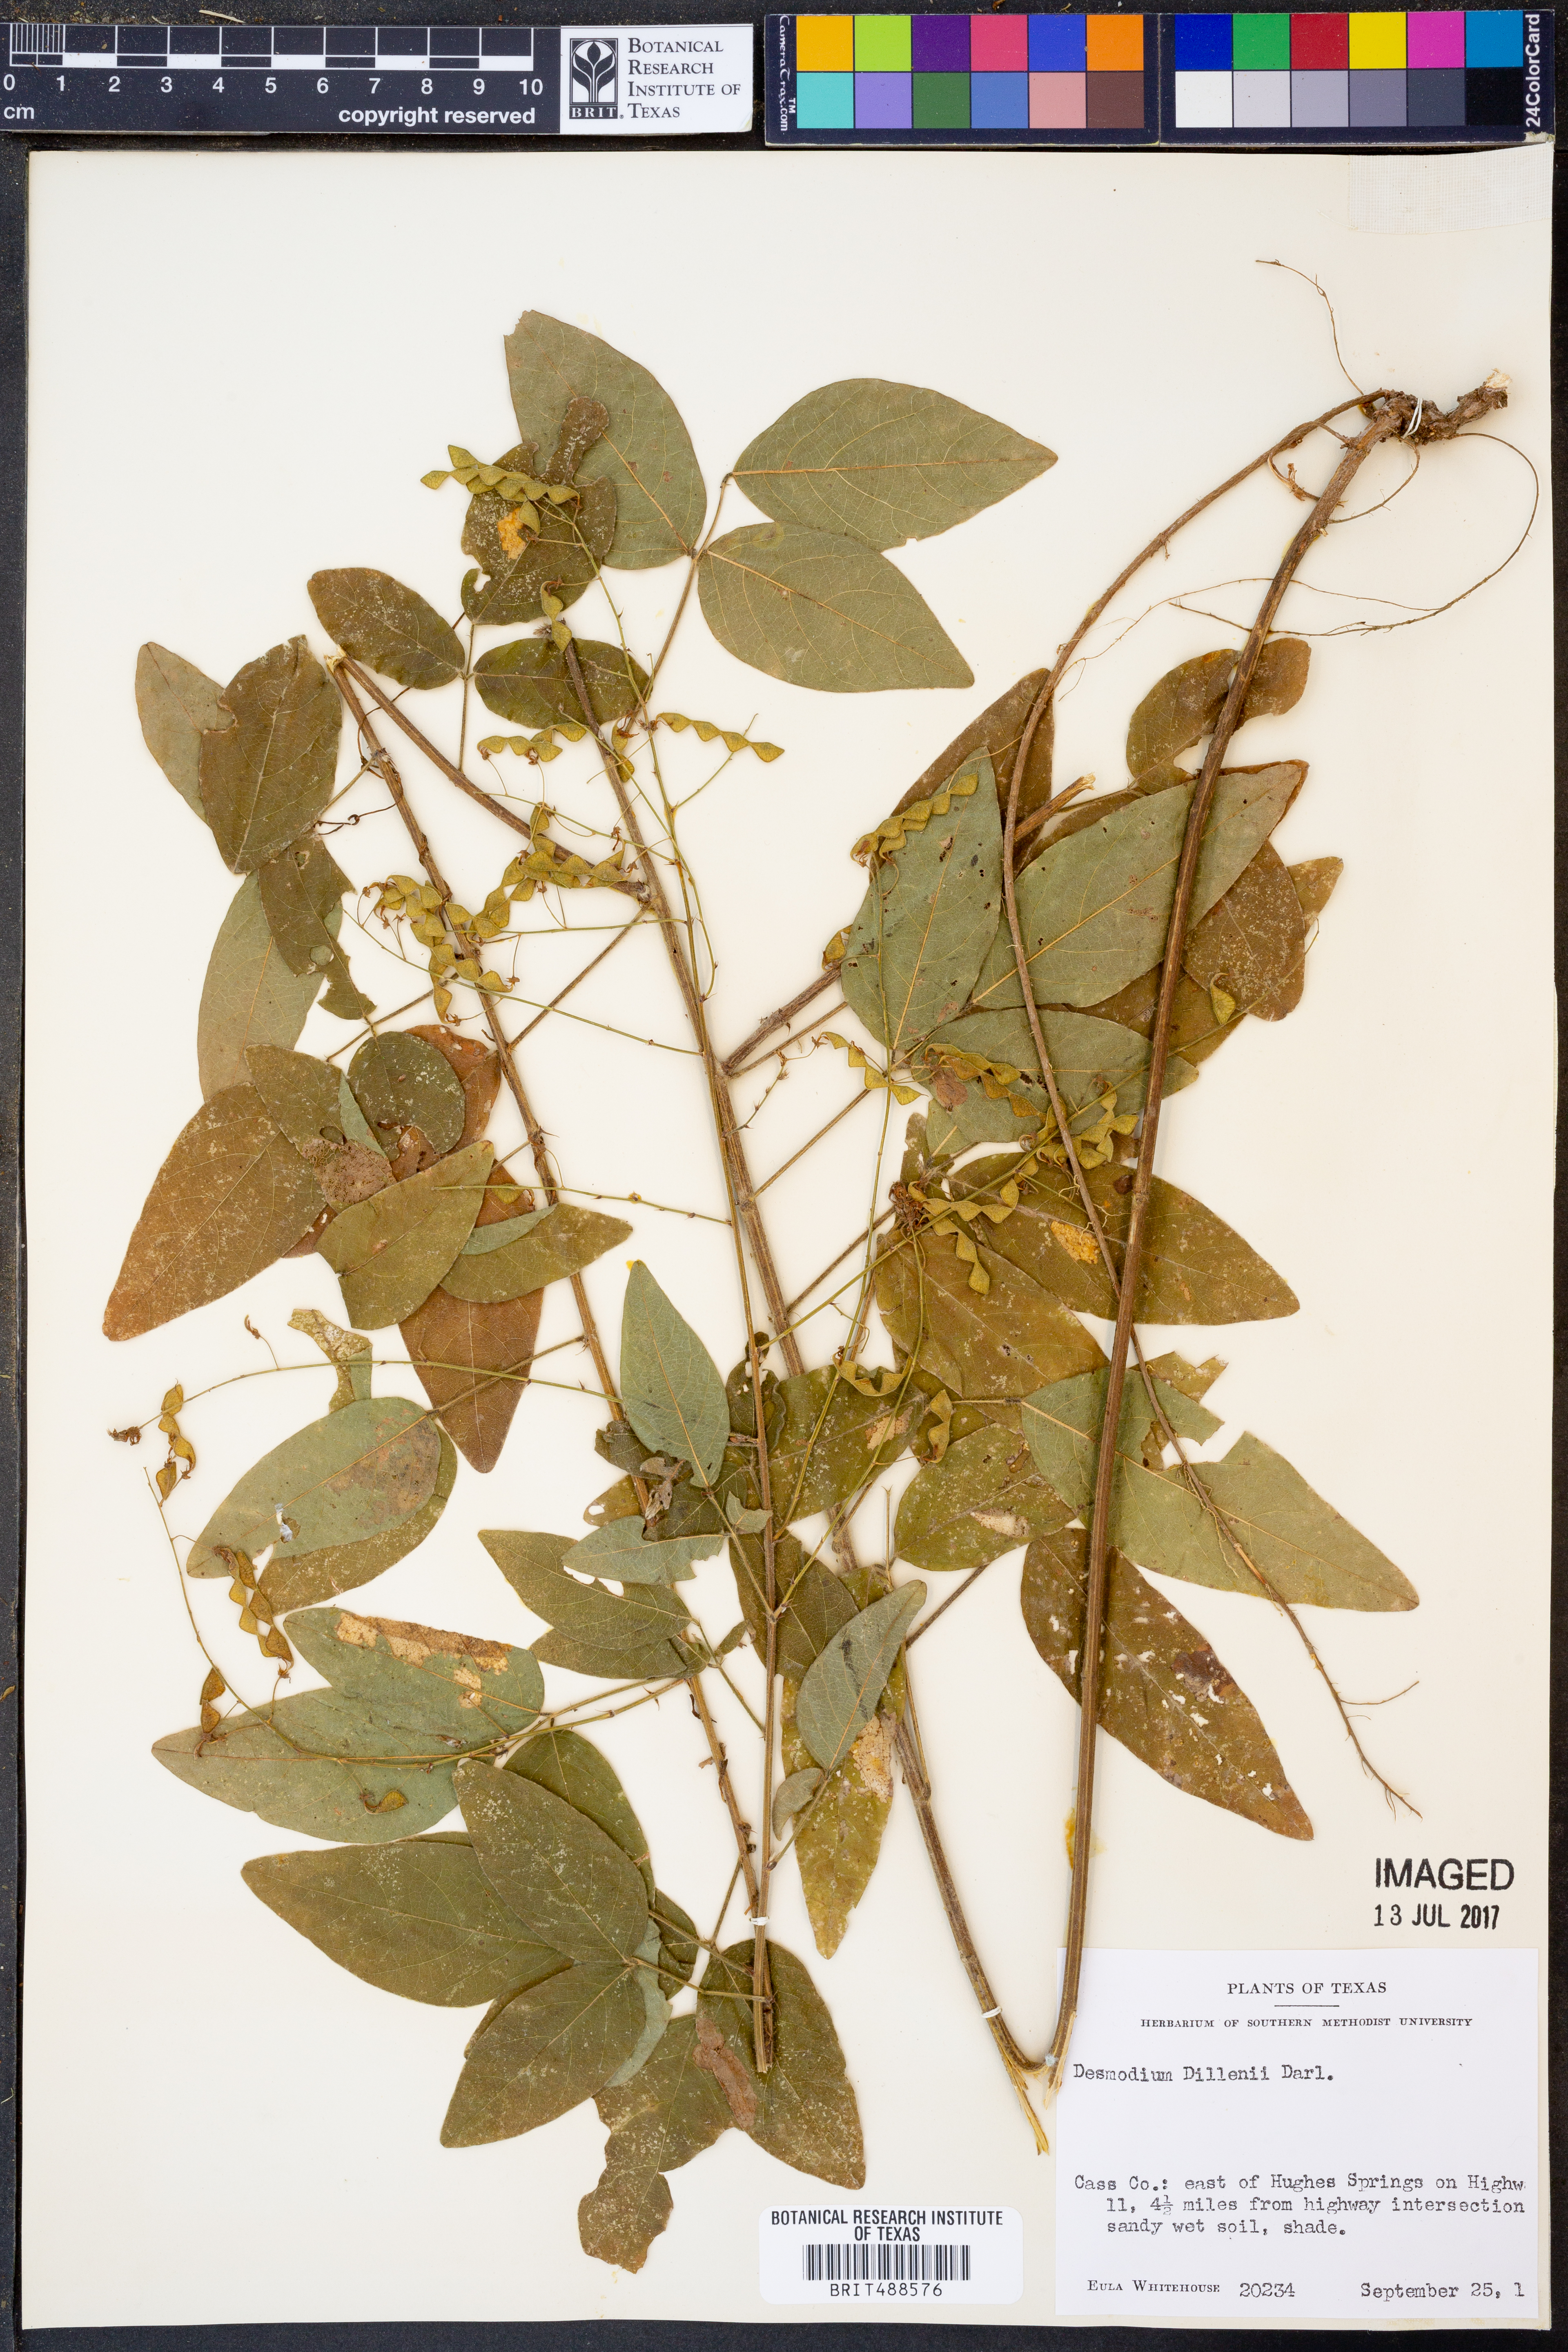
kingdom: Plantae
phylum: Tracheophyta
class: Magnoliopsida
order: Fabales
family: Fabaceae
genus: Desmodium
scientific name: Desmodium perplexum
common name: Perplexed tick trefoil
